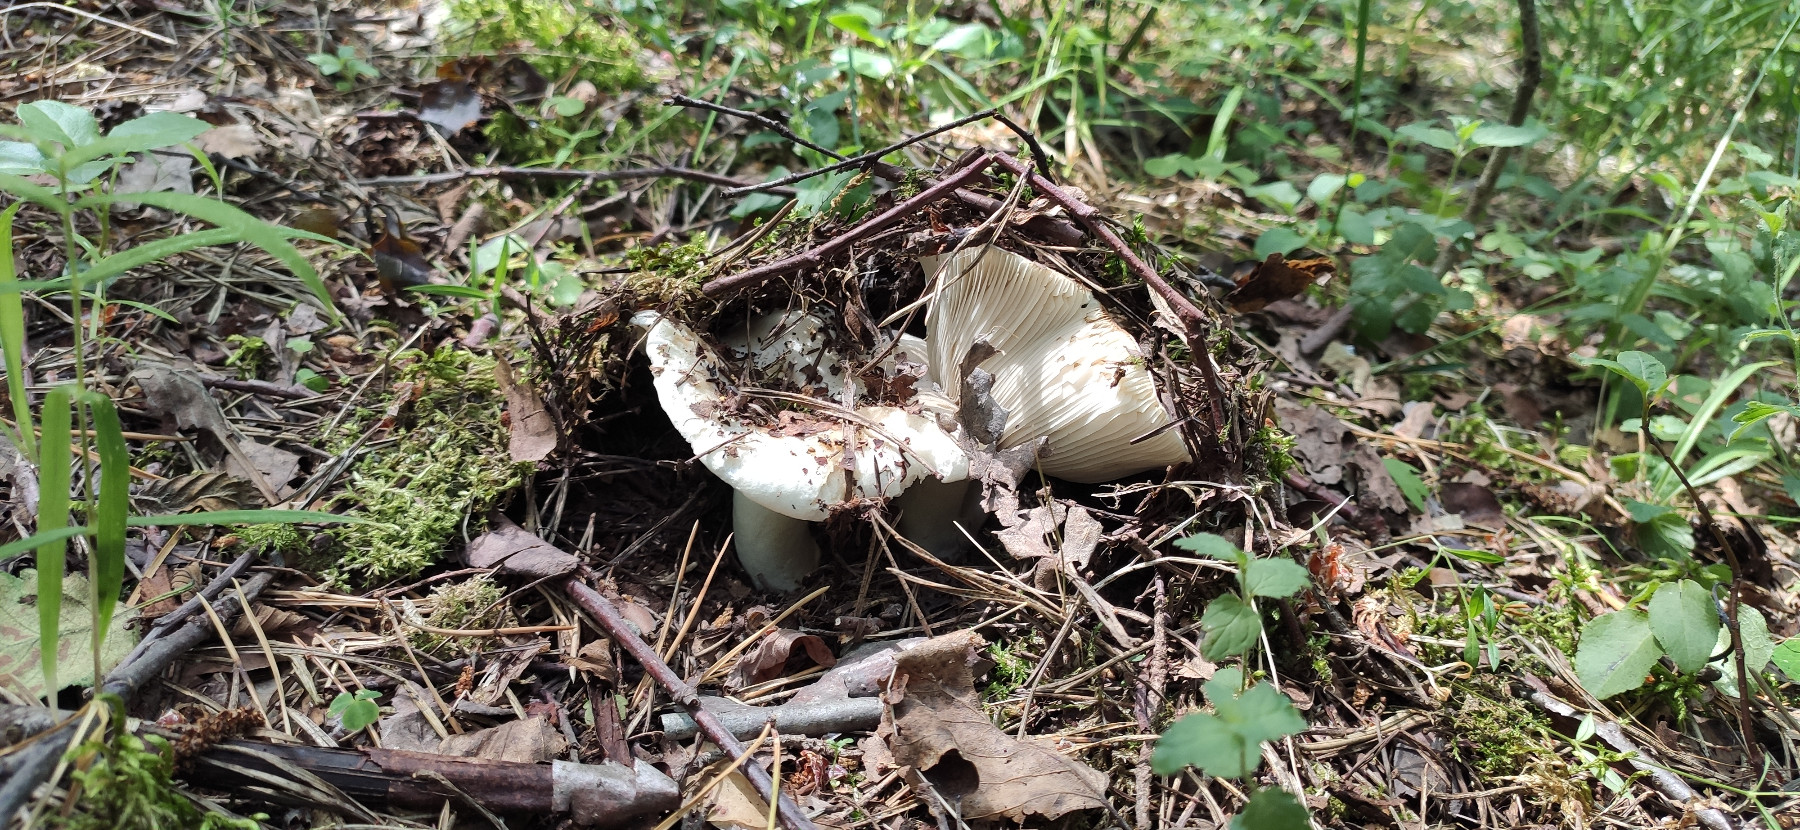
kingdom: Fungi
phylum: Basidiomycota
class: Agaricomycetes
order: Russulales
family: Russulaceae
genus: Russula
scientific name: Russula
